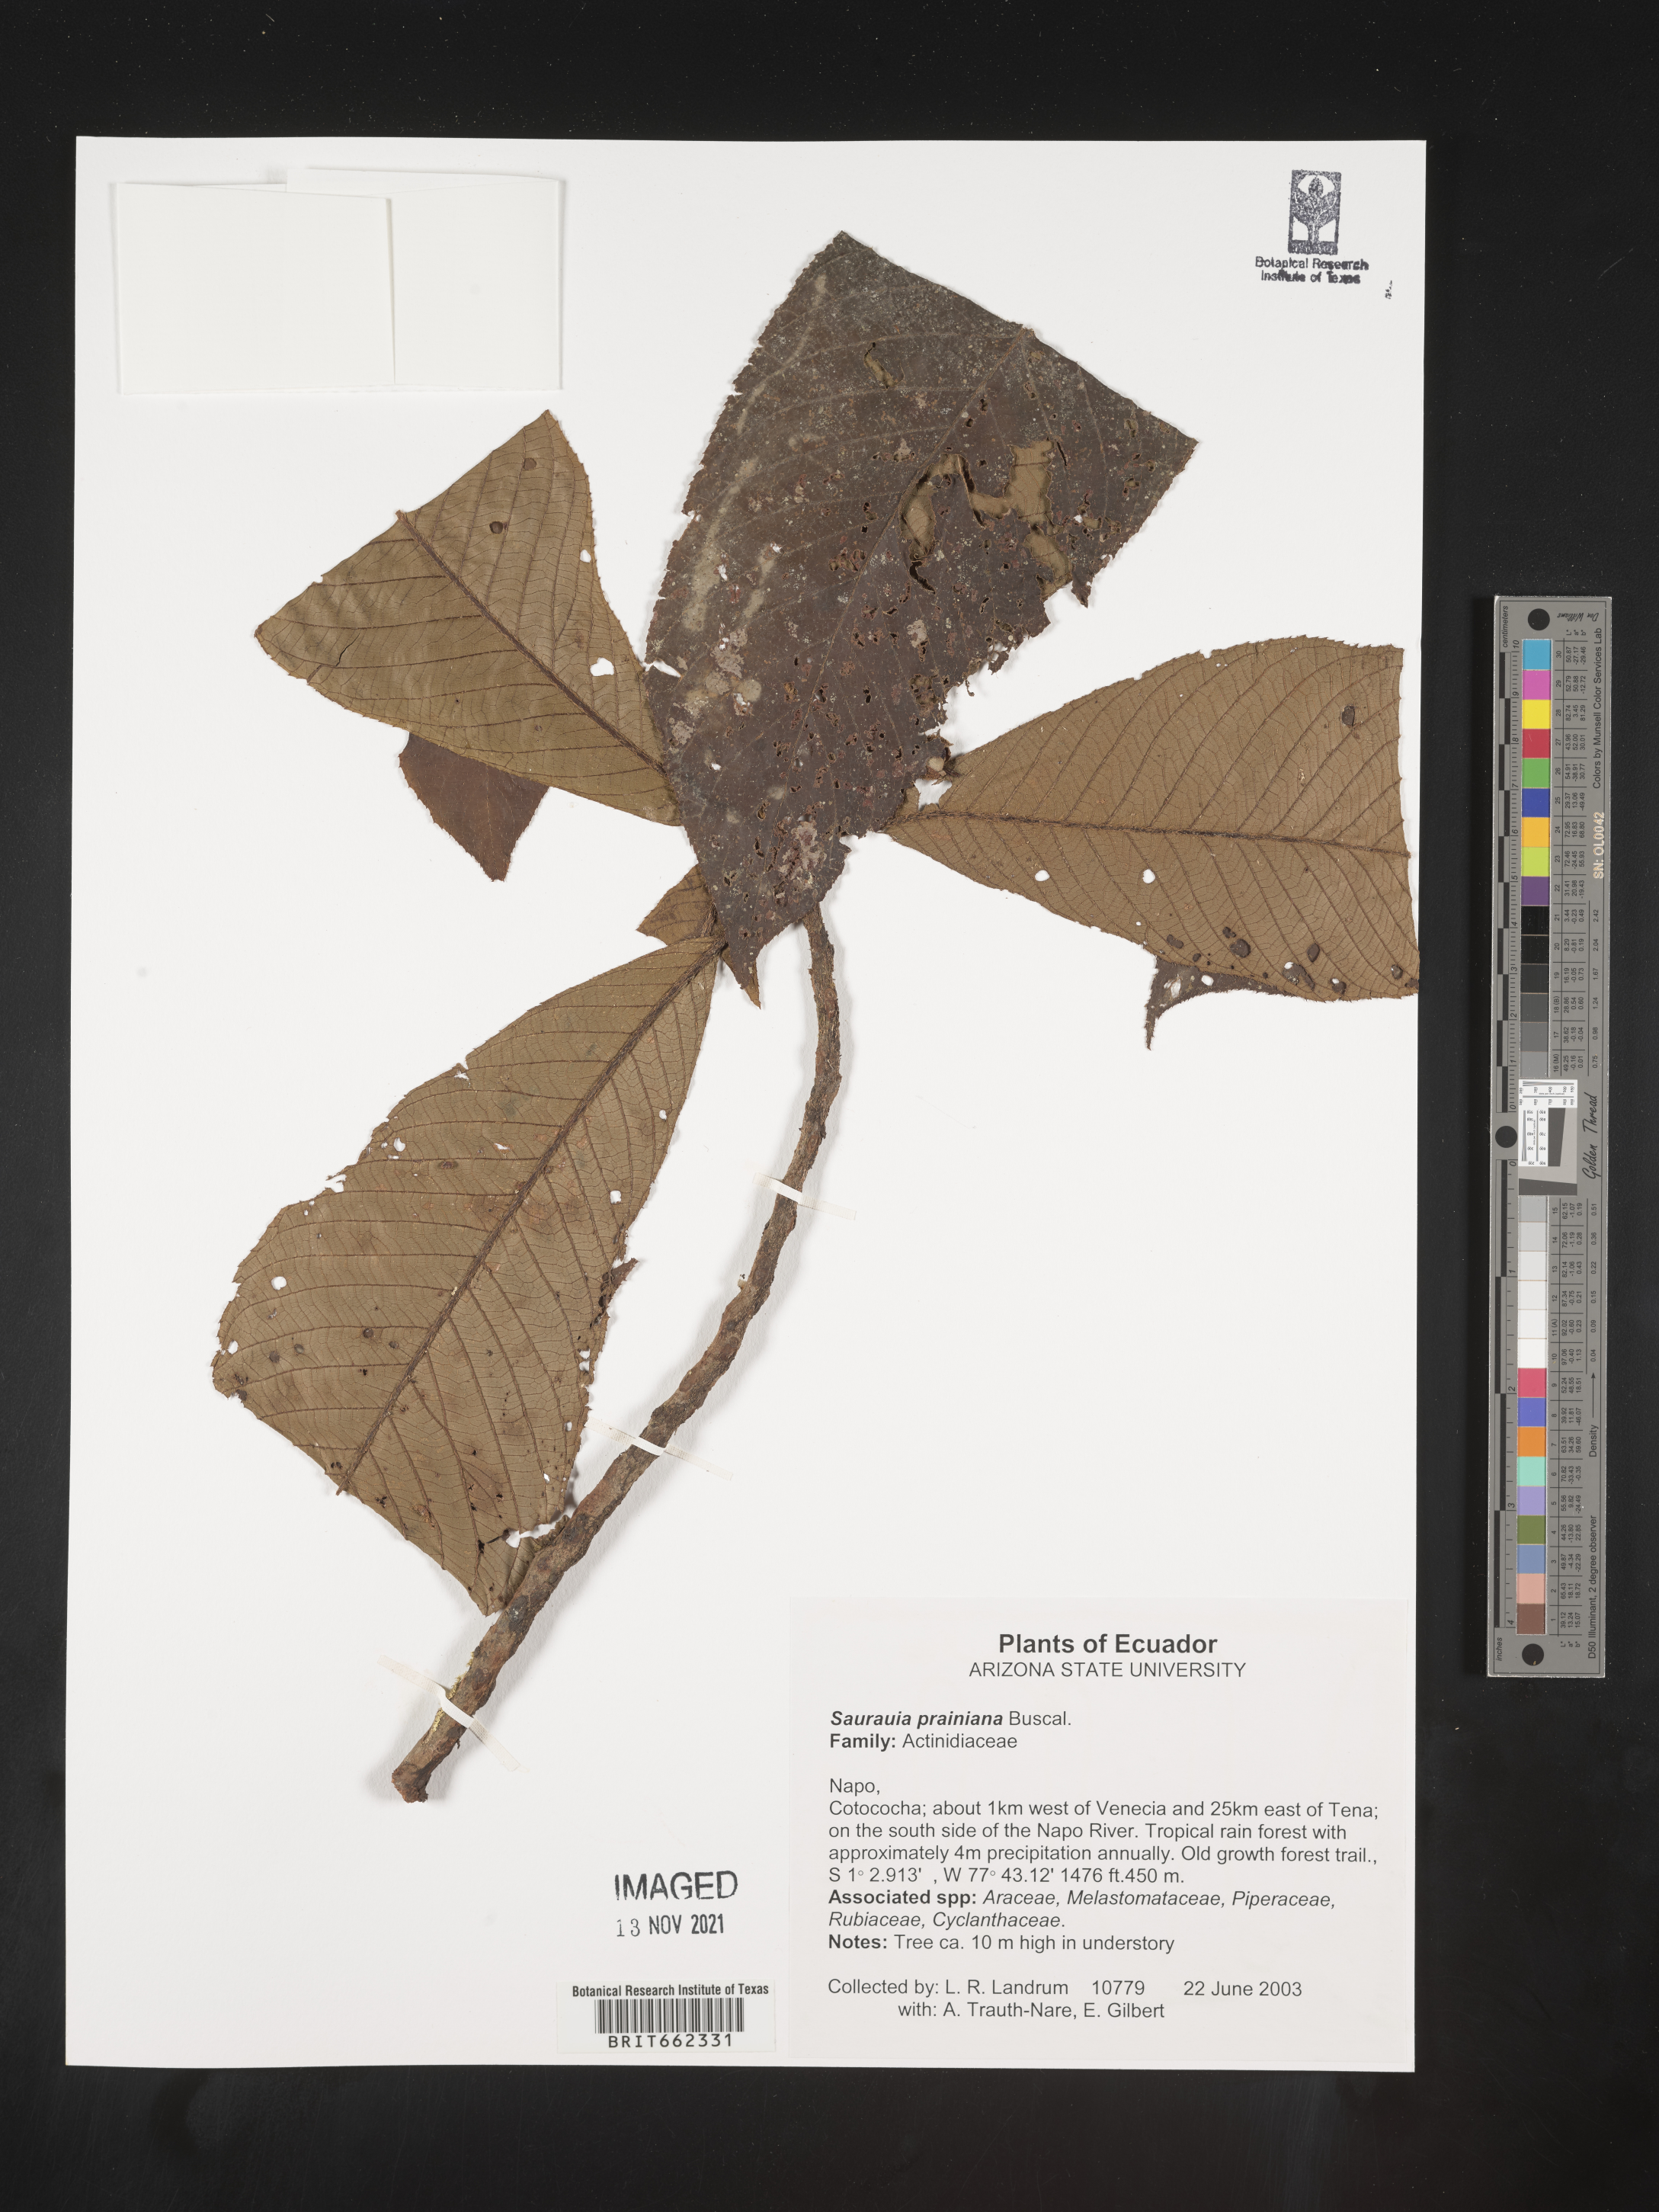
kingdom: Plantae
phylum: Tracheophyta
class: Magnoliopsida
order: Ericales
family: Actinidiaceae
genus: Saurauia
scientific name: Saurauia
